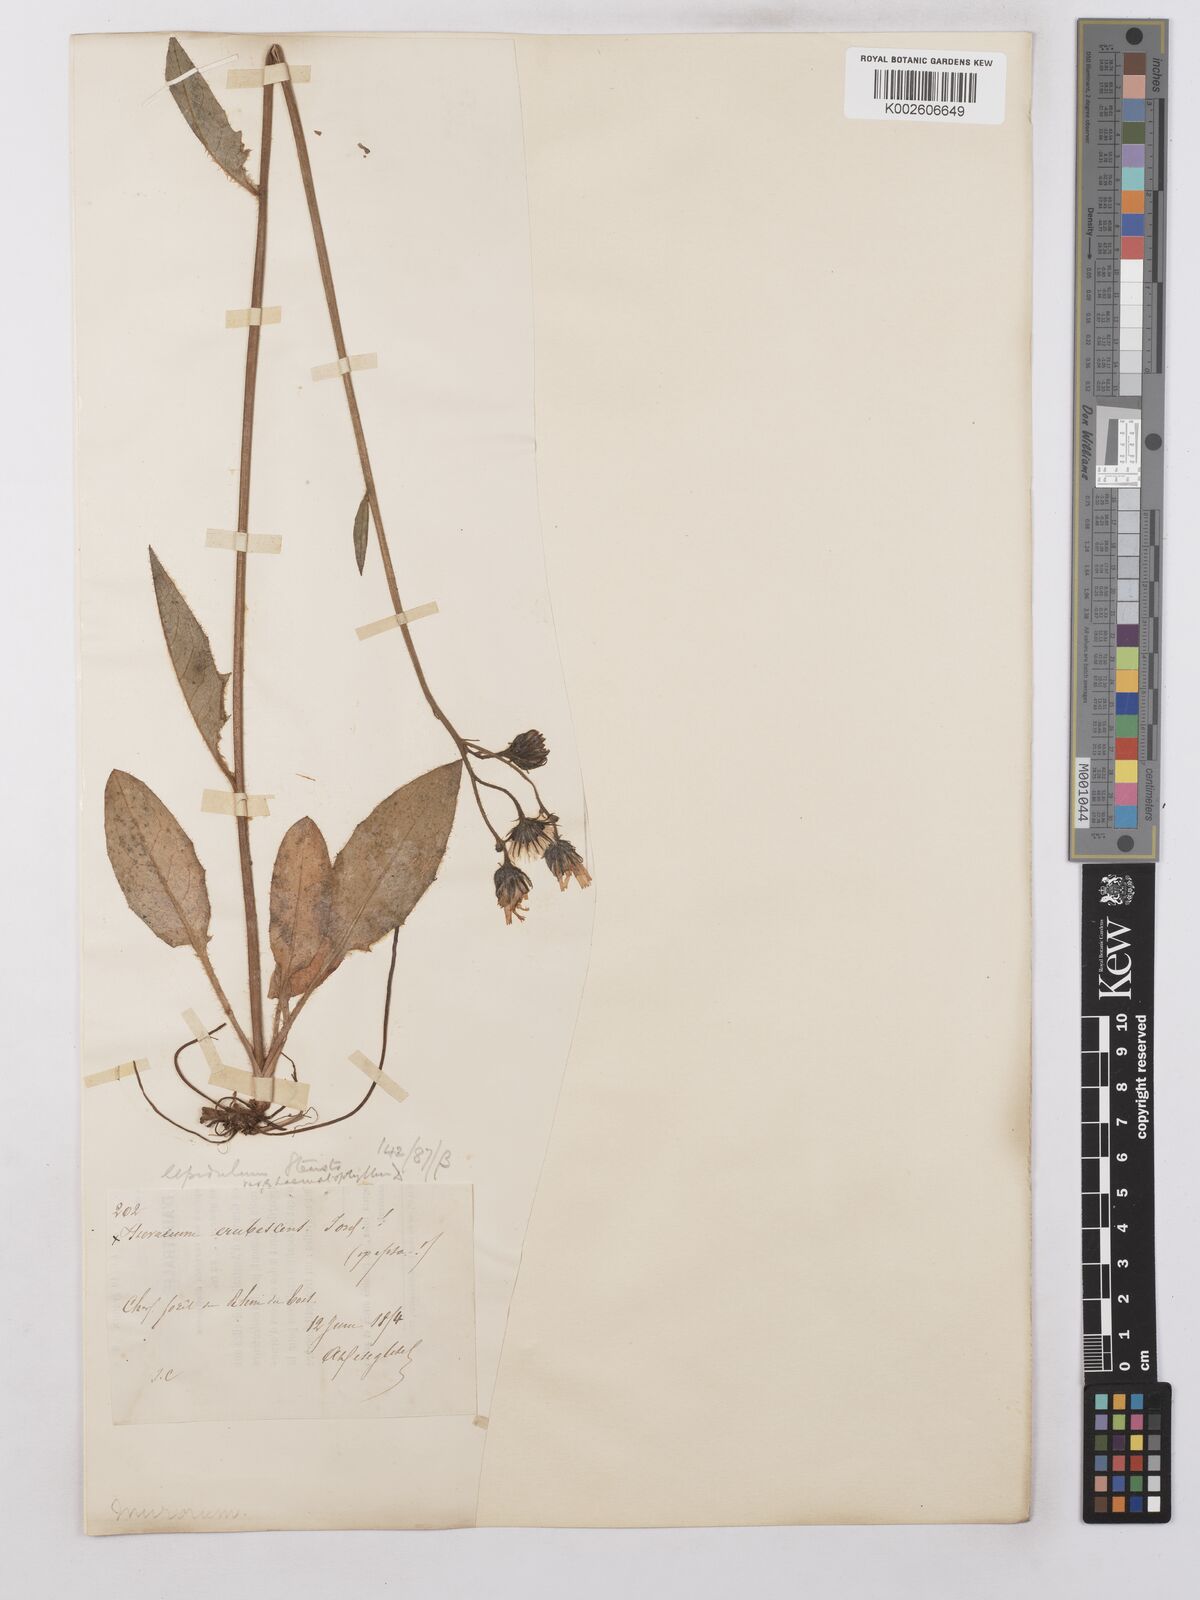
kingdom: Plantae
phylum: Tracheophyta
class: Magnoliopsida
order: Asterales
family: Asteraceae
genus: Hieracium
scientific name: Hieracium lepidulum
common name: Irregular-toothed hawkweed
